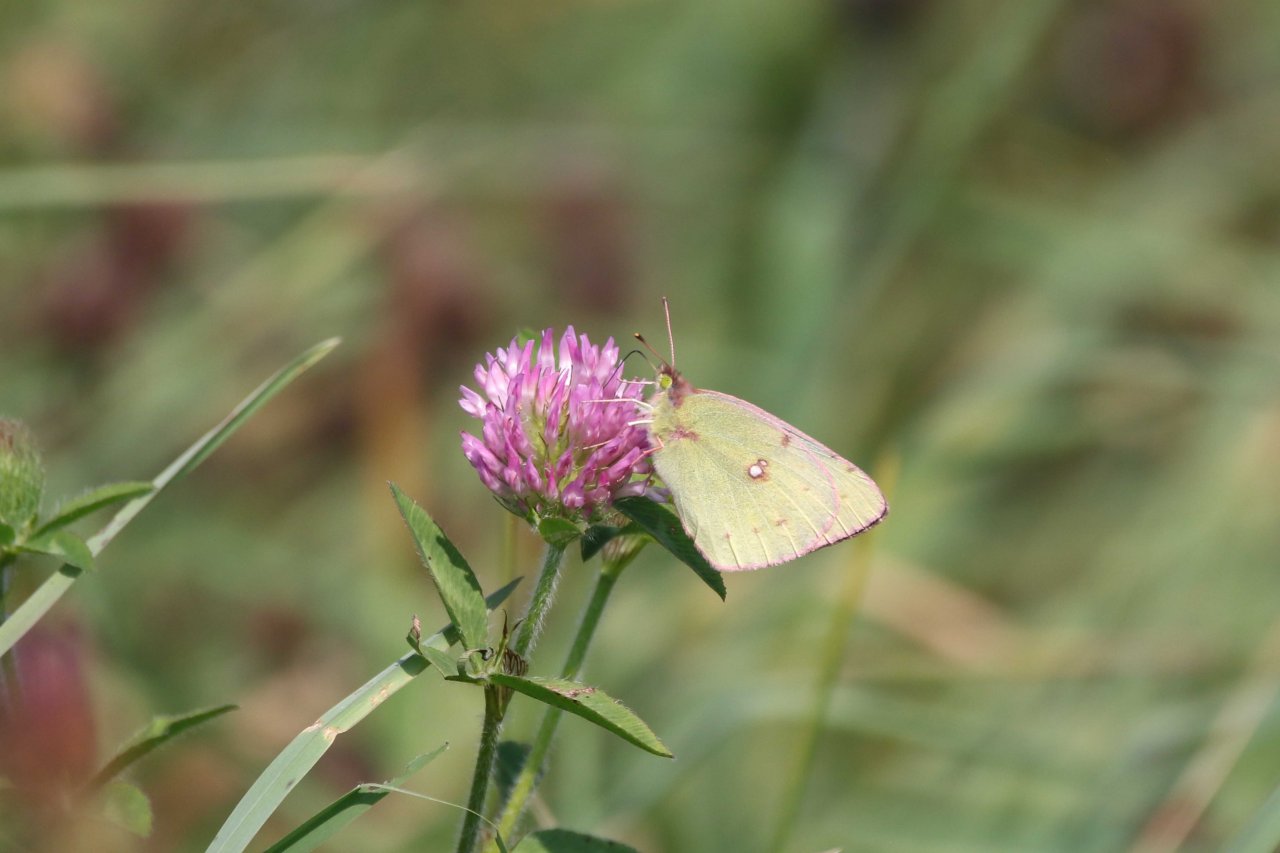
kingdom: Animalia
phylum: Arthropoda
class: Insecta
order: Lepidoptera
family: Pieridae
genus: Colias
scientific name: Colias philodice
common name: Clouded Sulphur
